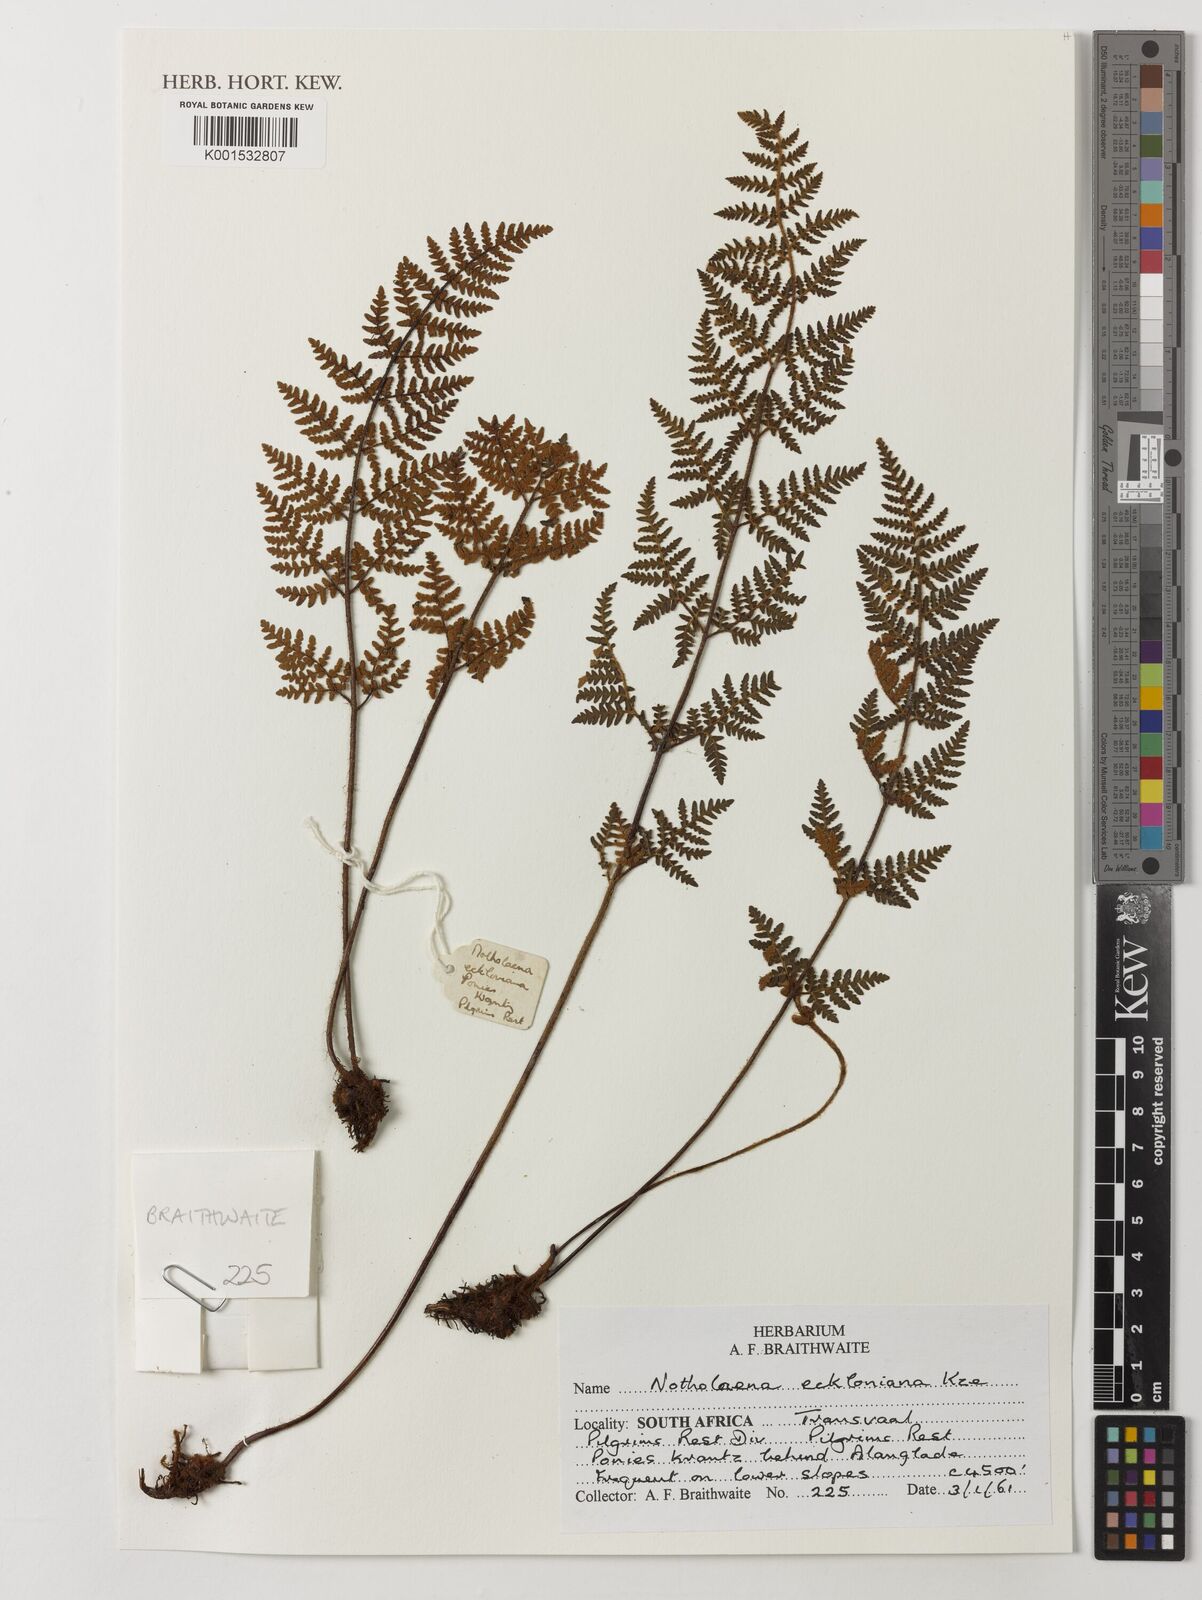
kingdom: Plantae
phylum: Tracheophyta
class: Polypodiopsida
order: Polypodiales
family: Pteridaceae
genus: Cheilanthes
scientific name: Cheilanthes eckloniana
